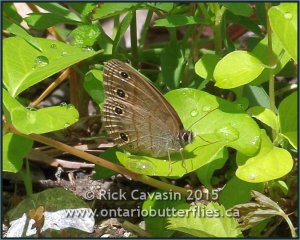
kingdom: Animalia
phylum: Arthropoda
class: Insecta
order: Lepidoptera
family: Nymphalidae
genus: Euptychia
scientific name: Euptychia cymela
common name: Little Wood Satyr
